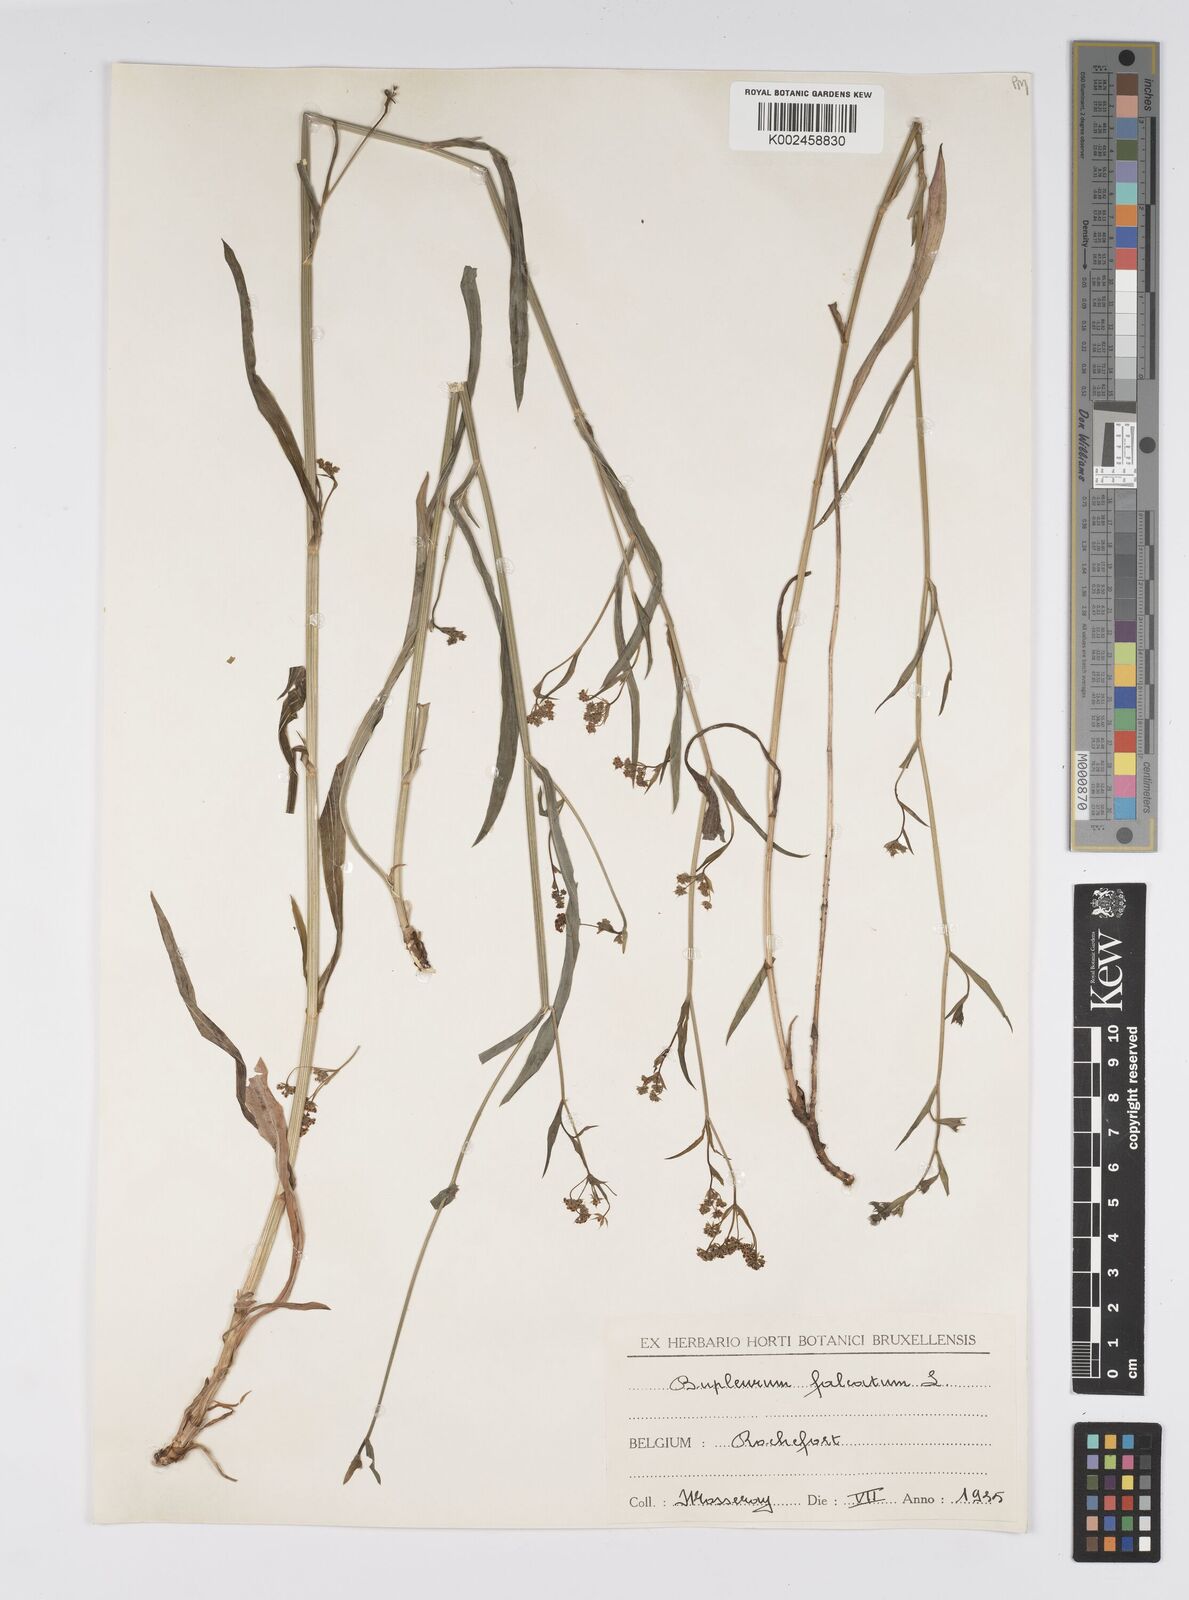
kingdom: Plantae
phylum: Tracheophyta
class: Magnoliopsida
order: Apiales
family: Apiaceae
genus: Bupleurum
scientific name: Bupleurum falcatum
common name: Sickle-leaved hare's-ear
